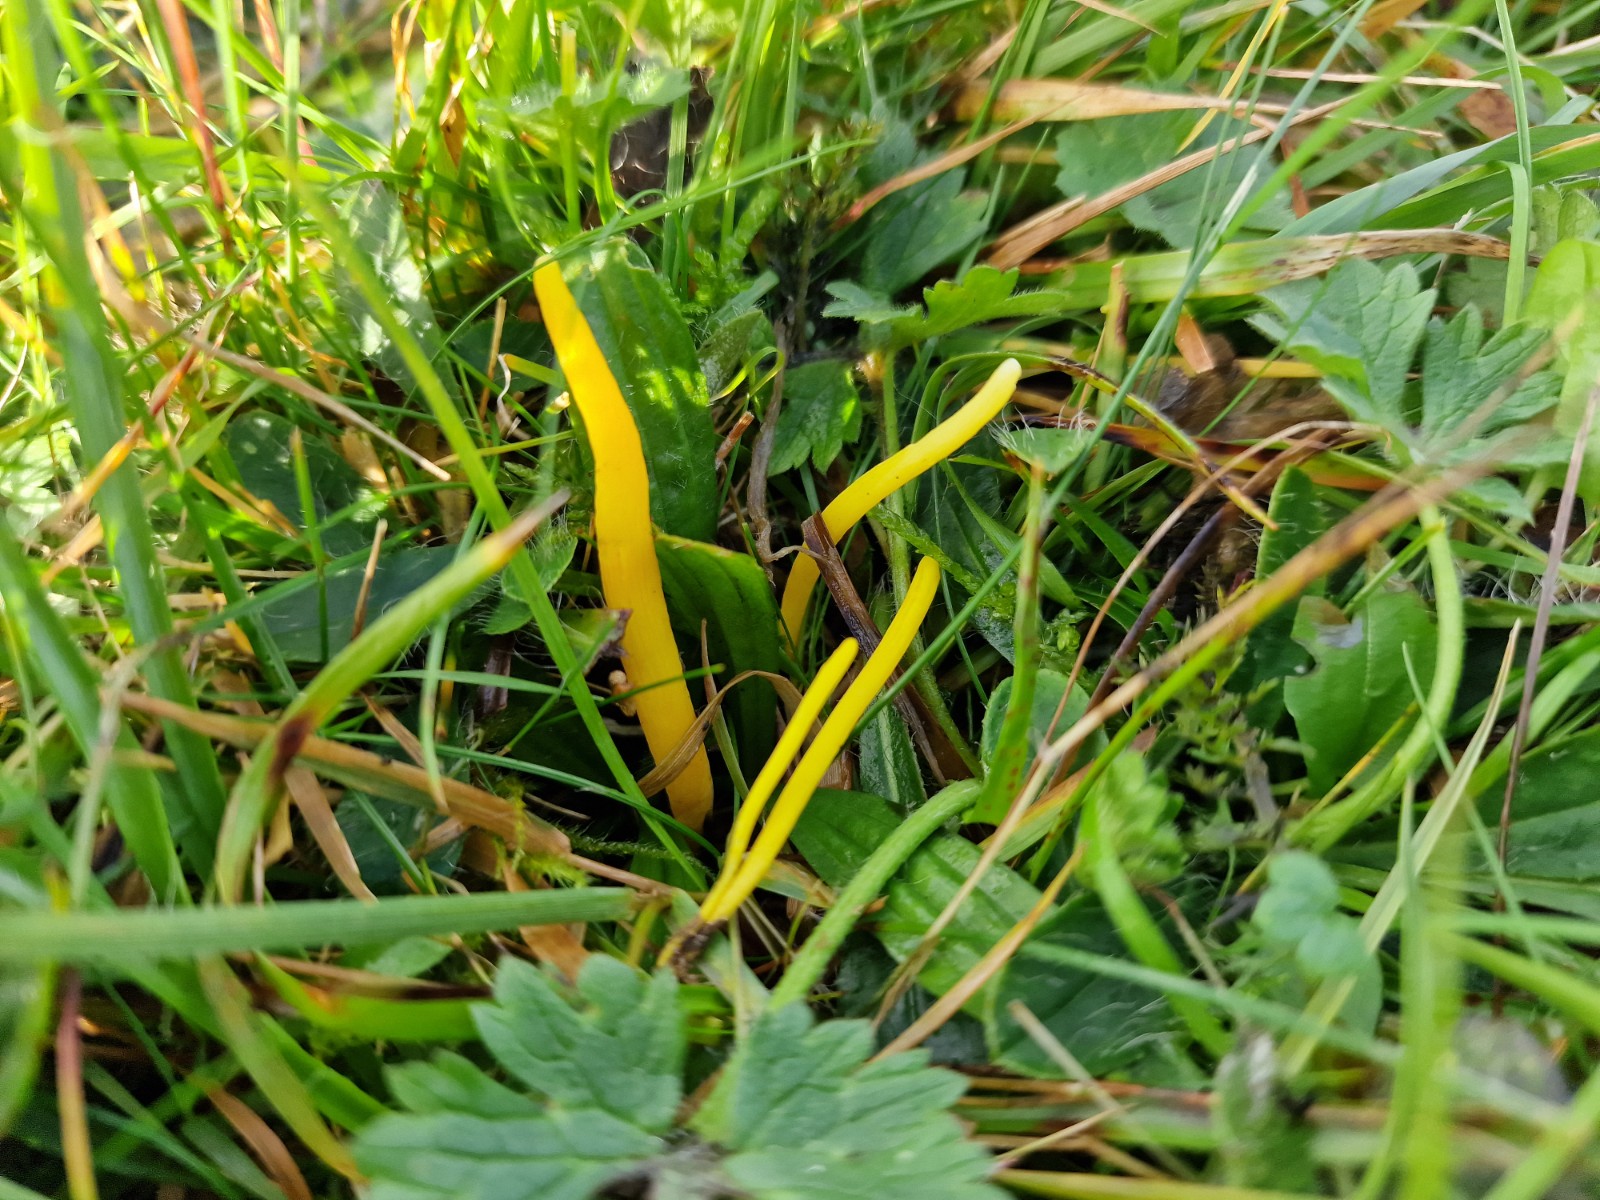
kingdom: Fungi
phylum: Basidiomycota
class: Agaricomycetes
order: Agaricales
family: Clavariaceae
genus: Clavulinopsis
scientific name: Clavulinopsis helvola
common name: orangegul køllesvamp
